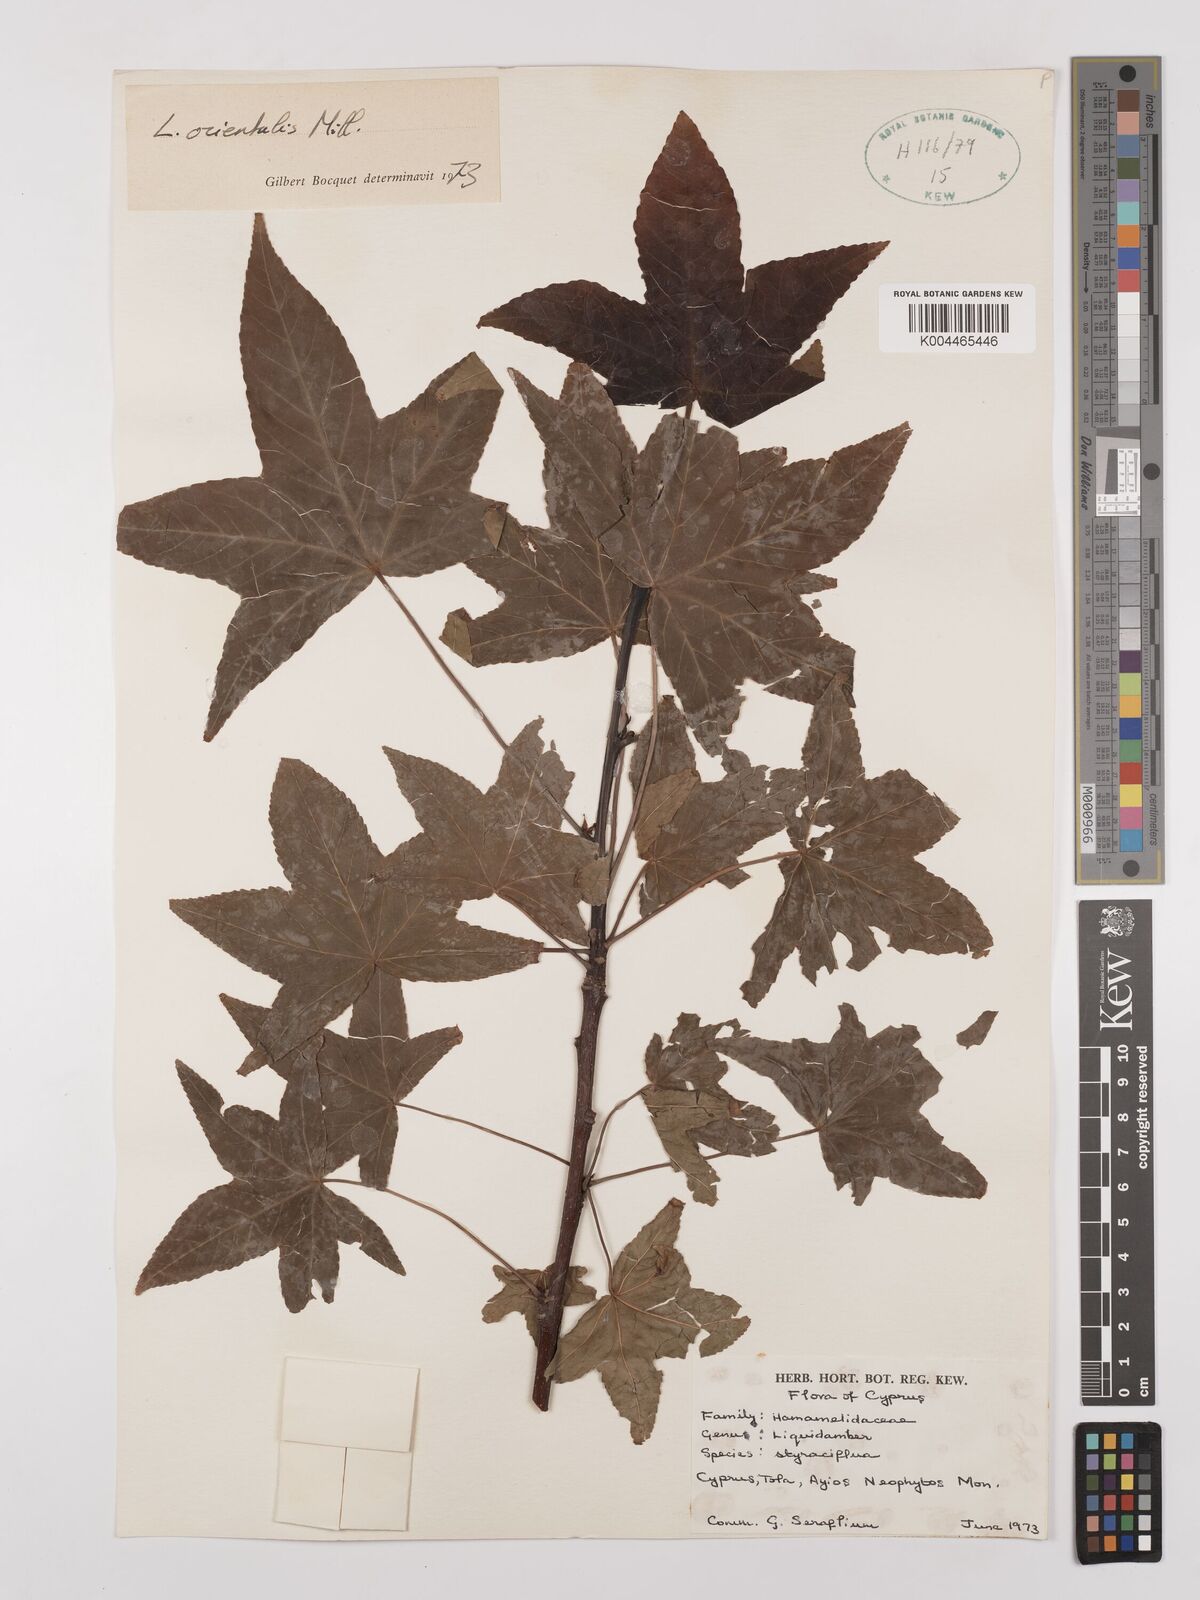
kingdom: Plantae
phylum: Tracheophyta
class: Magnoliopsida
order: Saxifragales
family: Altingiaceae
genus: Liquidambar
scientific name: Liquidambar styraciflua
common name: Sweet gum
